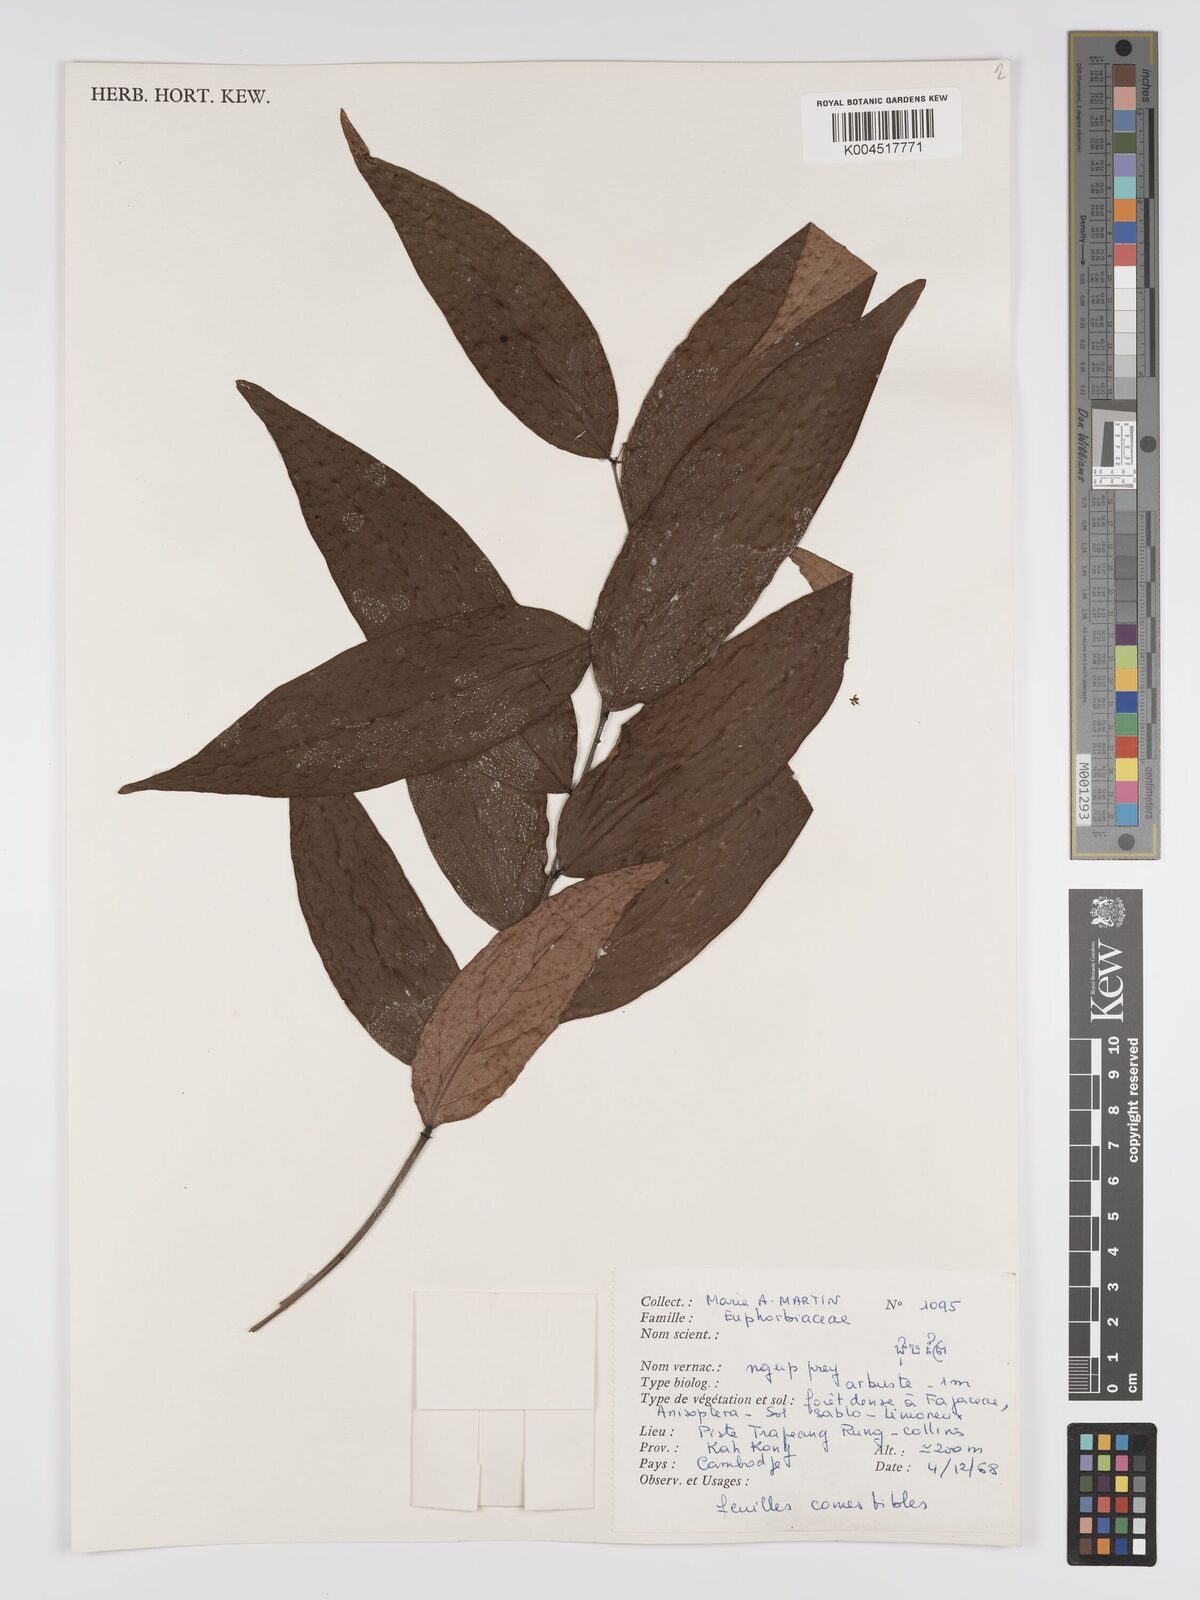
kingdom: Plantae
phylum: Tracheophyta
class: Magnoliopsida
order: Malpighiales
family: Phyllanthaceae
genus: Phyllanthus
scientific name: Phyllanthus pachyphyllus
